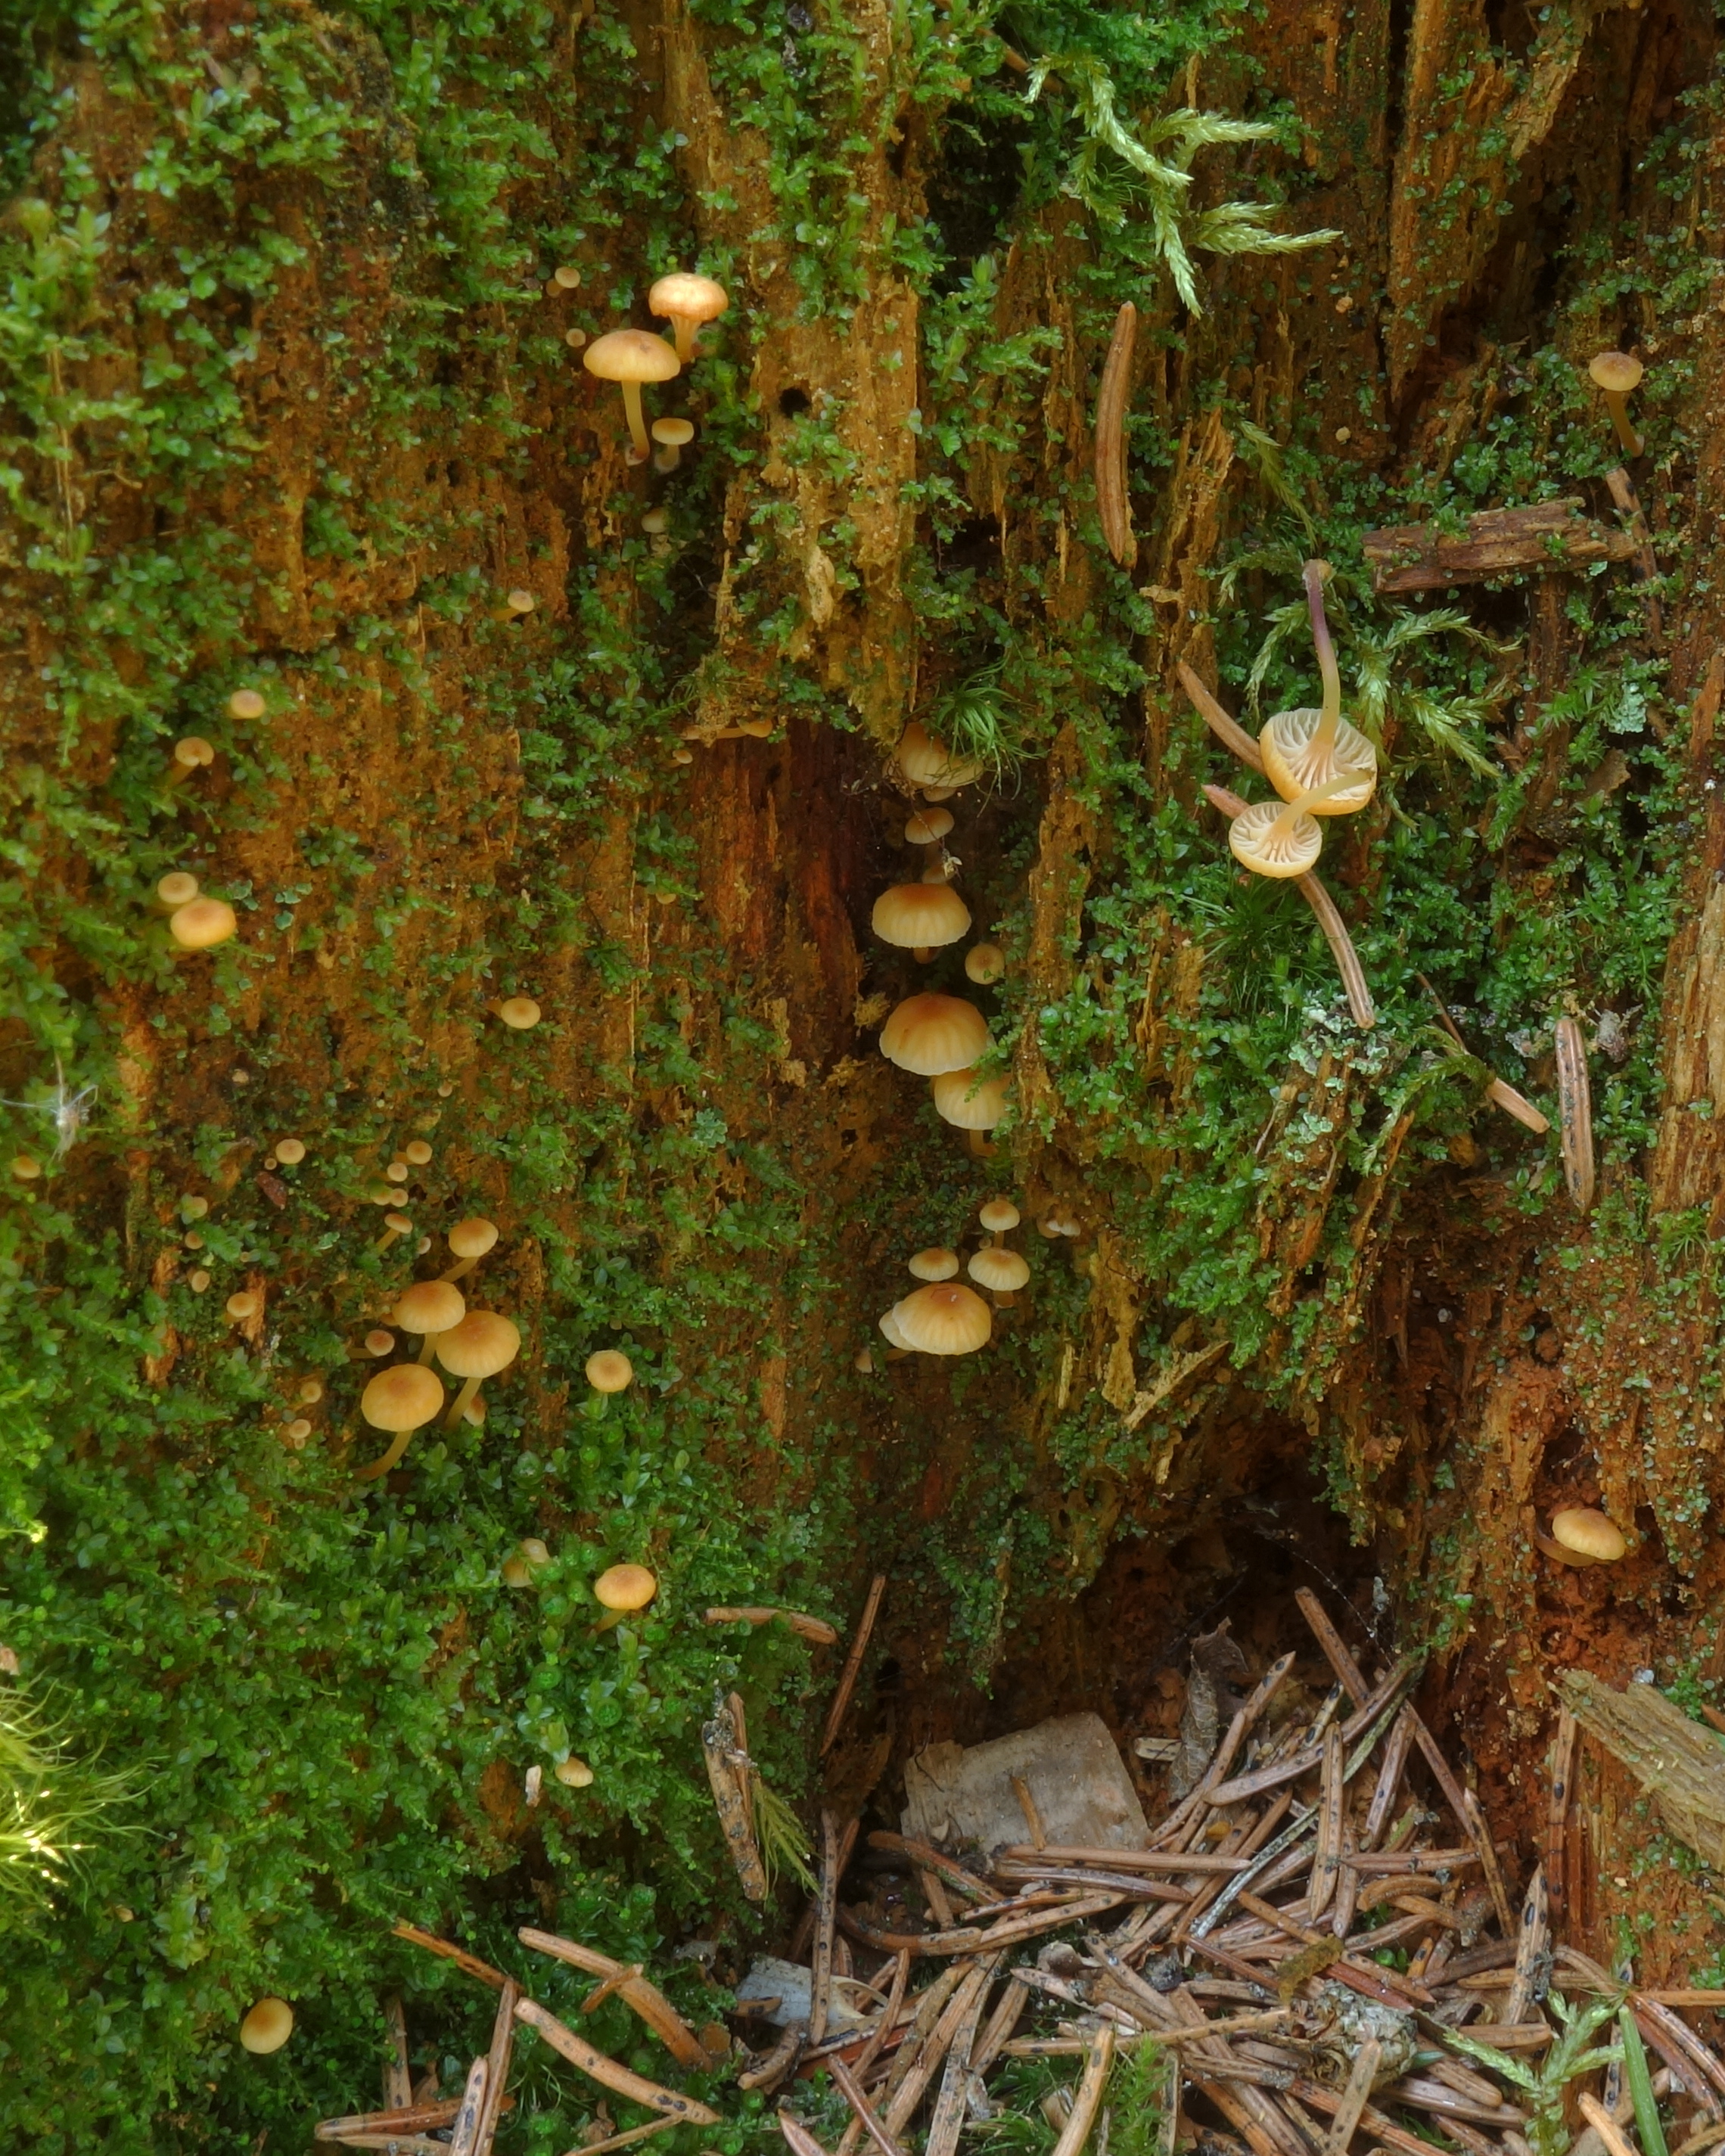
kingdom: Fungi
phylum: Basidiomycota
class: Agaricomycetes
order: Agaricales
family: Mycenaceae
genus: Xeromphalina
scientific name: Xeromphalina campanella
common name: Pinewood gingertail
